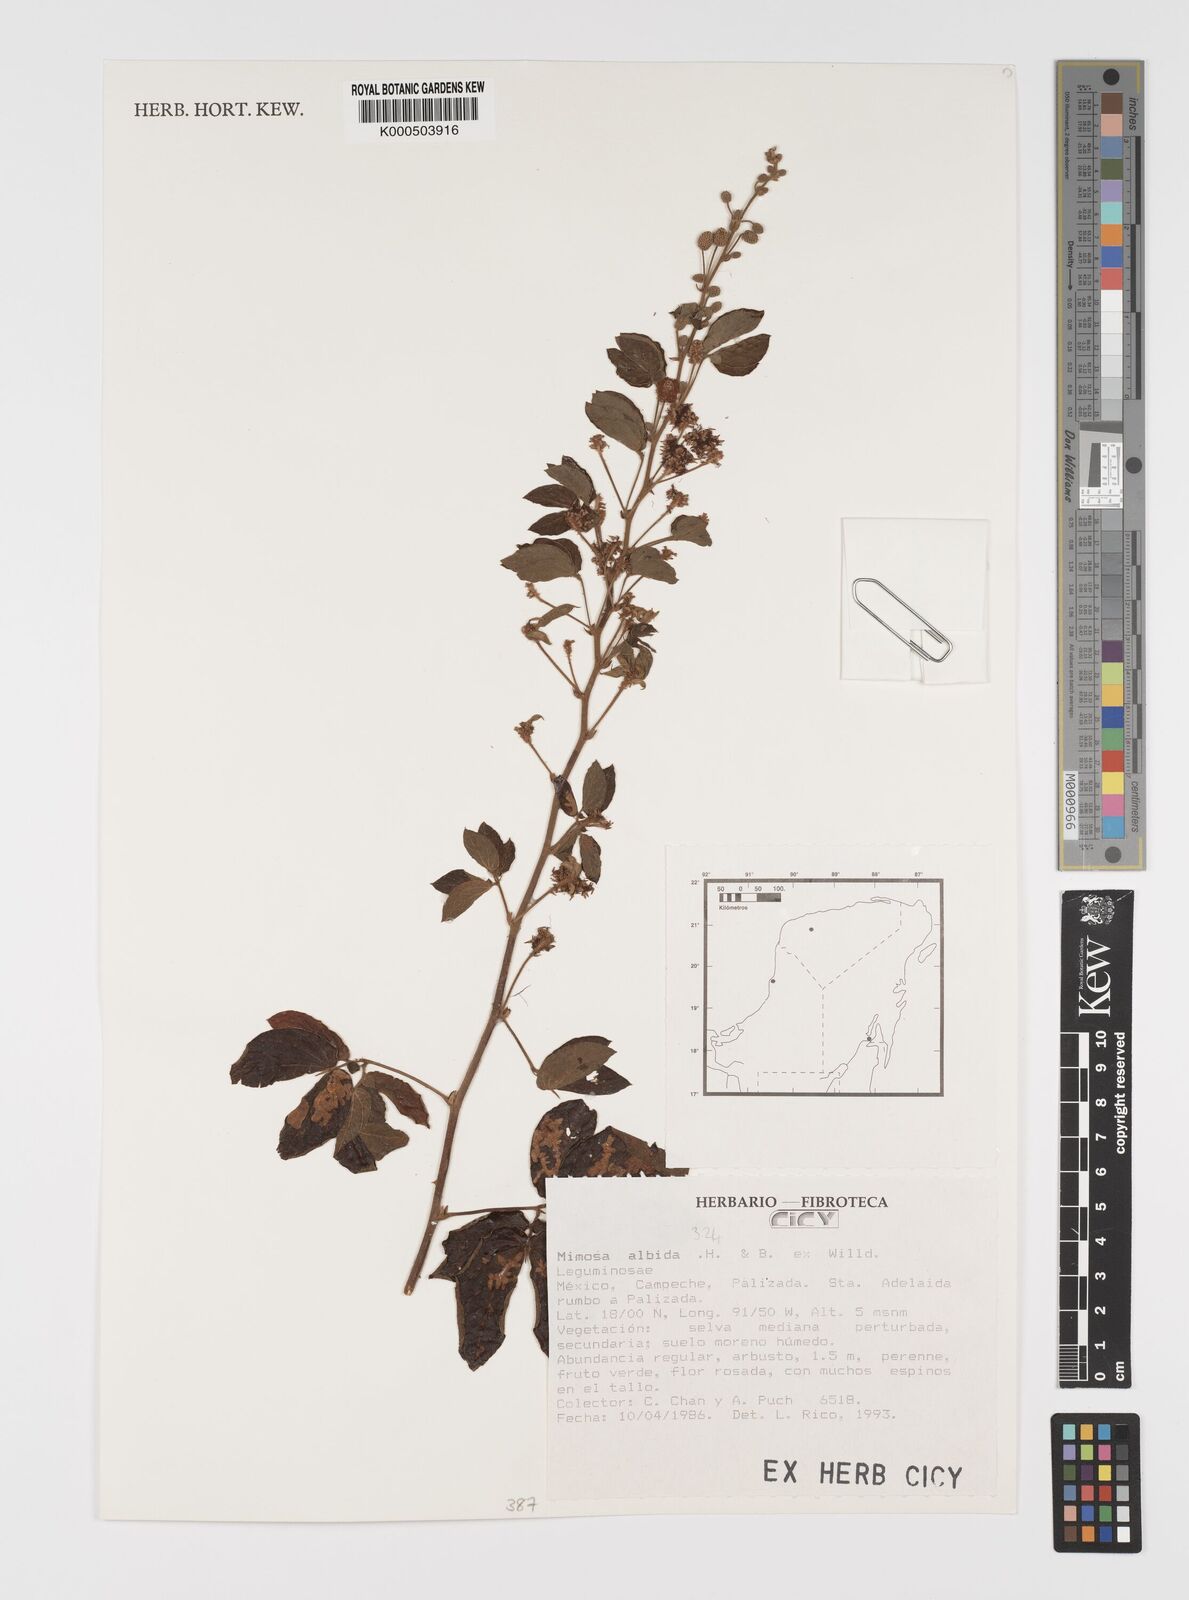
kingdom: Plantae
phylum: Tracheophyta
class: Magnoliopsida
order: Fabales
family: Fabaceae
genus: Mimosa
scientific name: Mimosa albida
